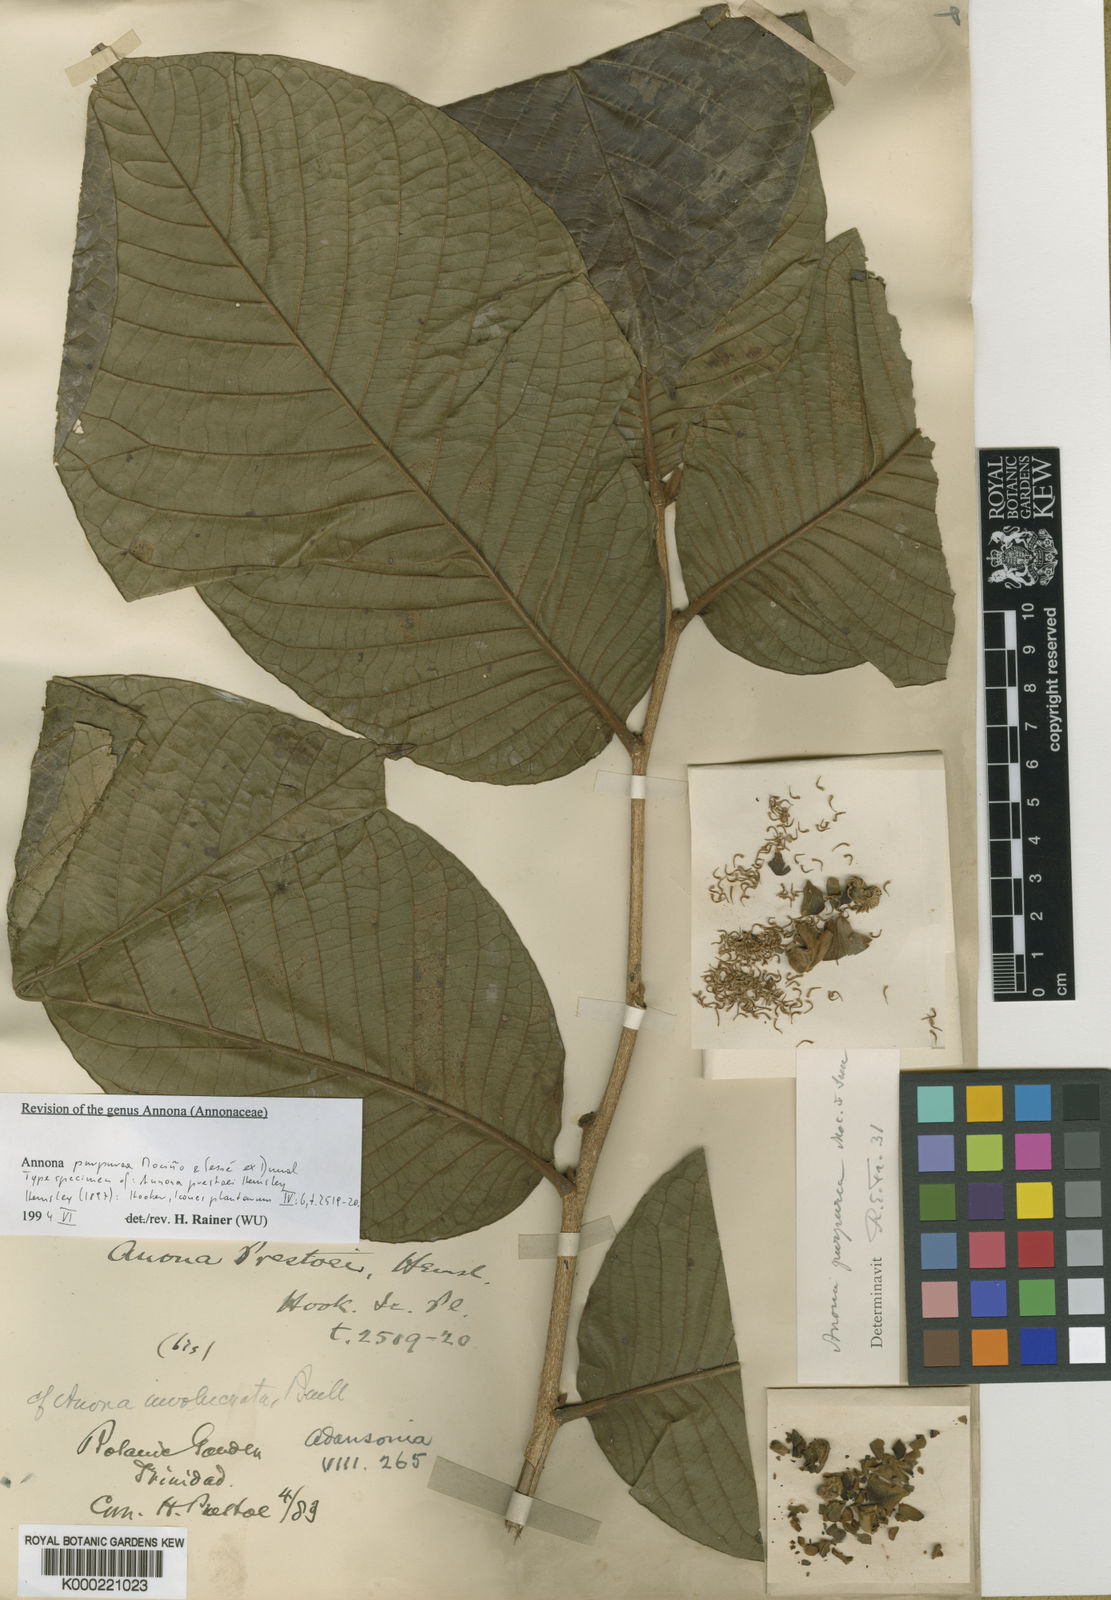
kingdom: Plantae
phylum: Tracheophyta
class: Magnoliopsida
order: Magnoliales
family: Annonaceae
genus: Annona
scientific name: Annona
